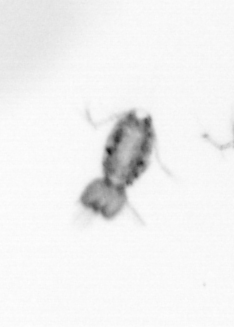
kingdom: Animalia
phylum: Arthropoda
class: Copepoda
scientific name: Copepoda
